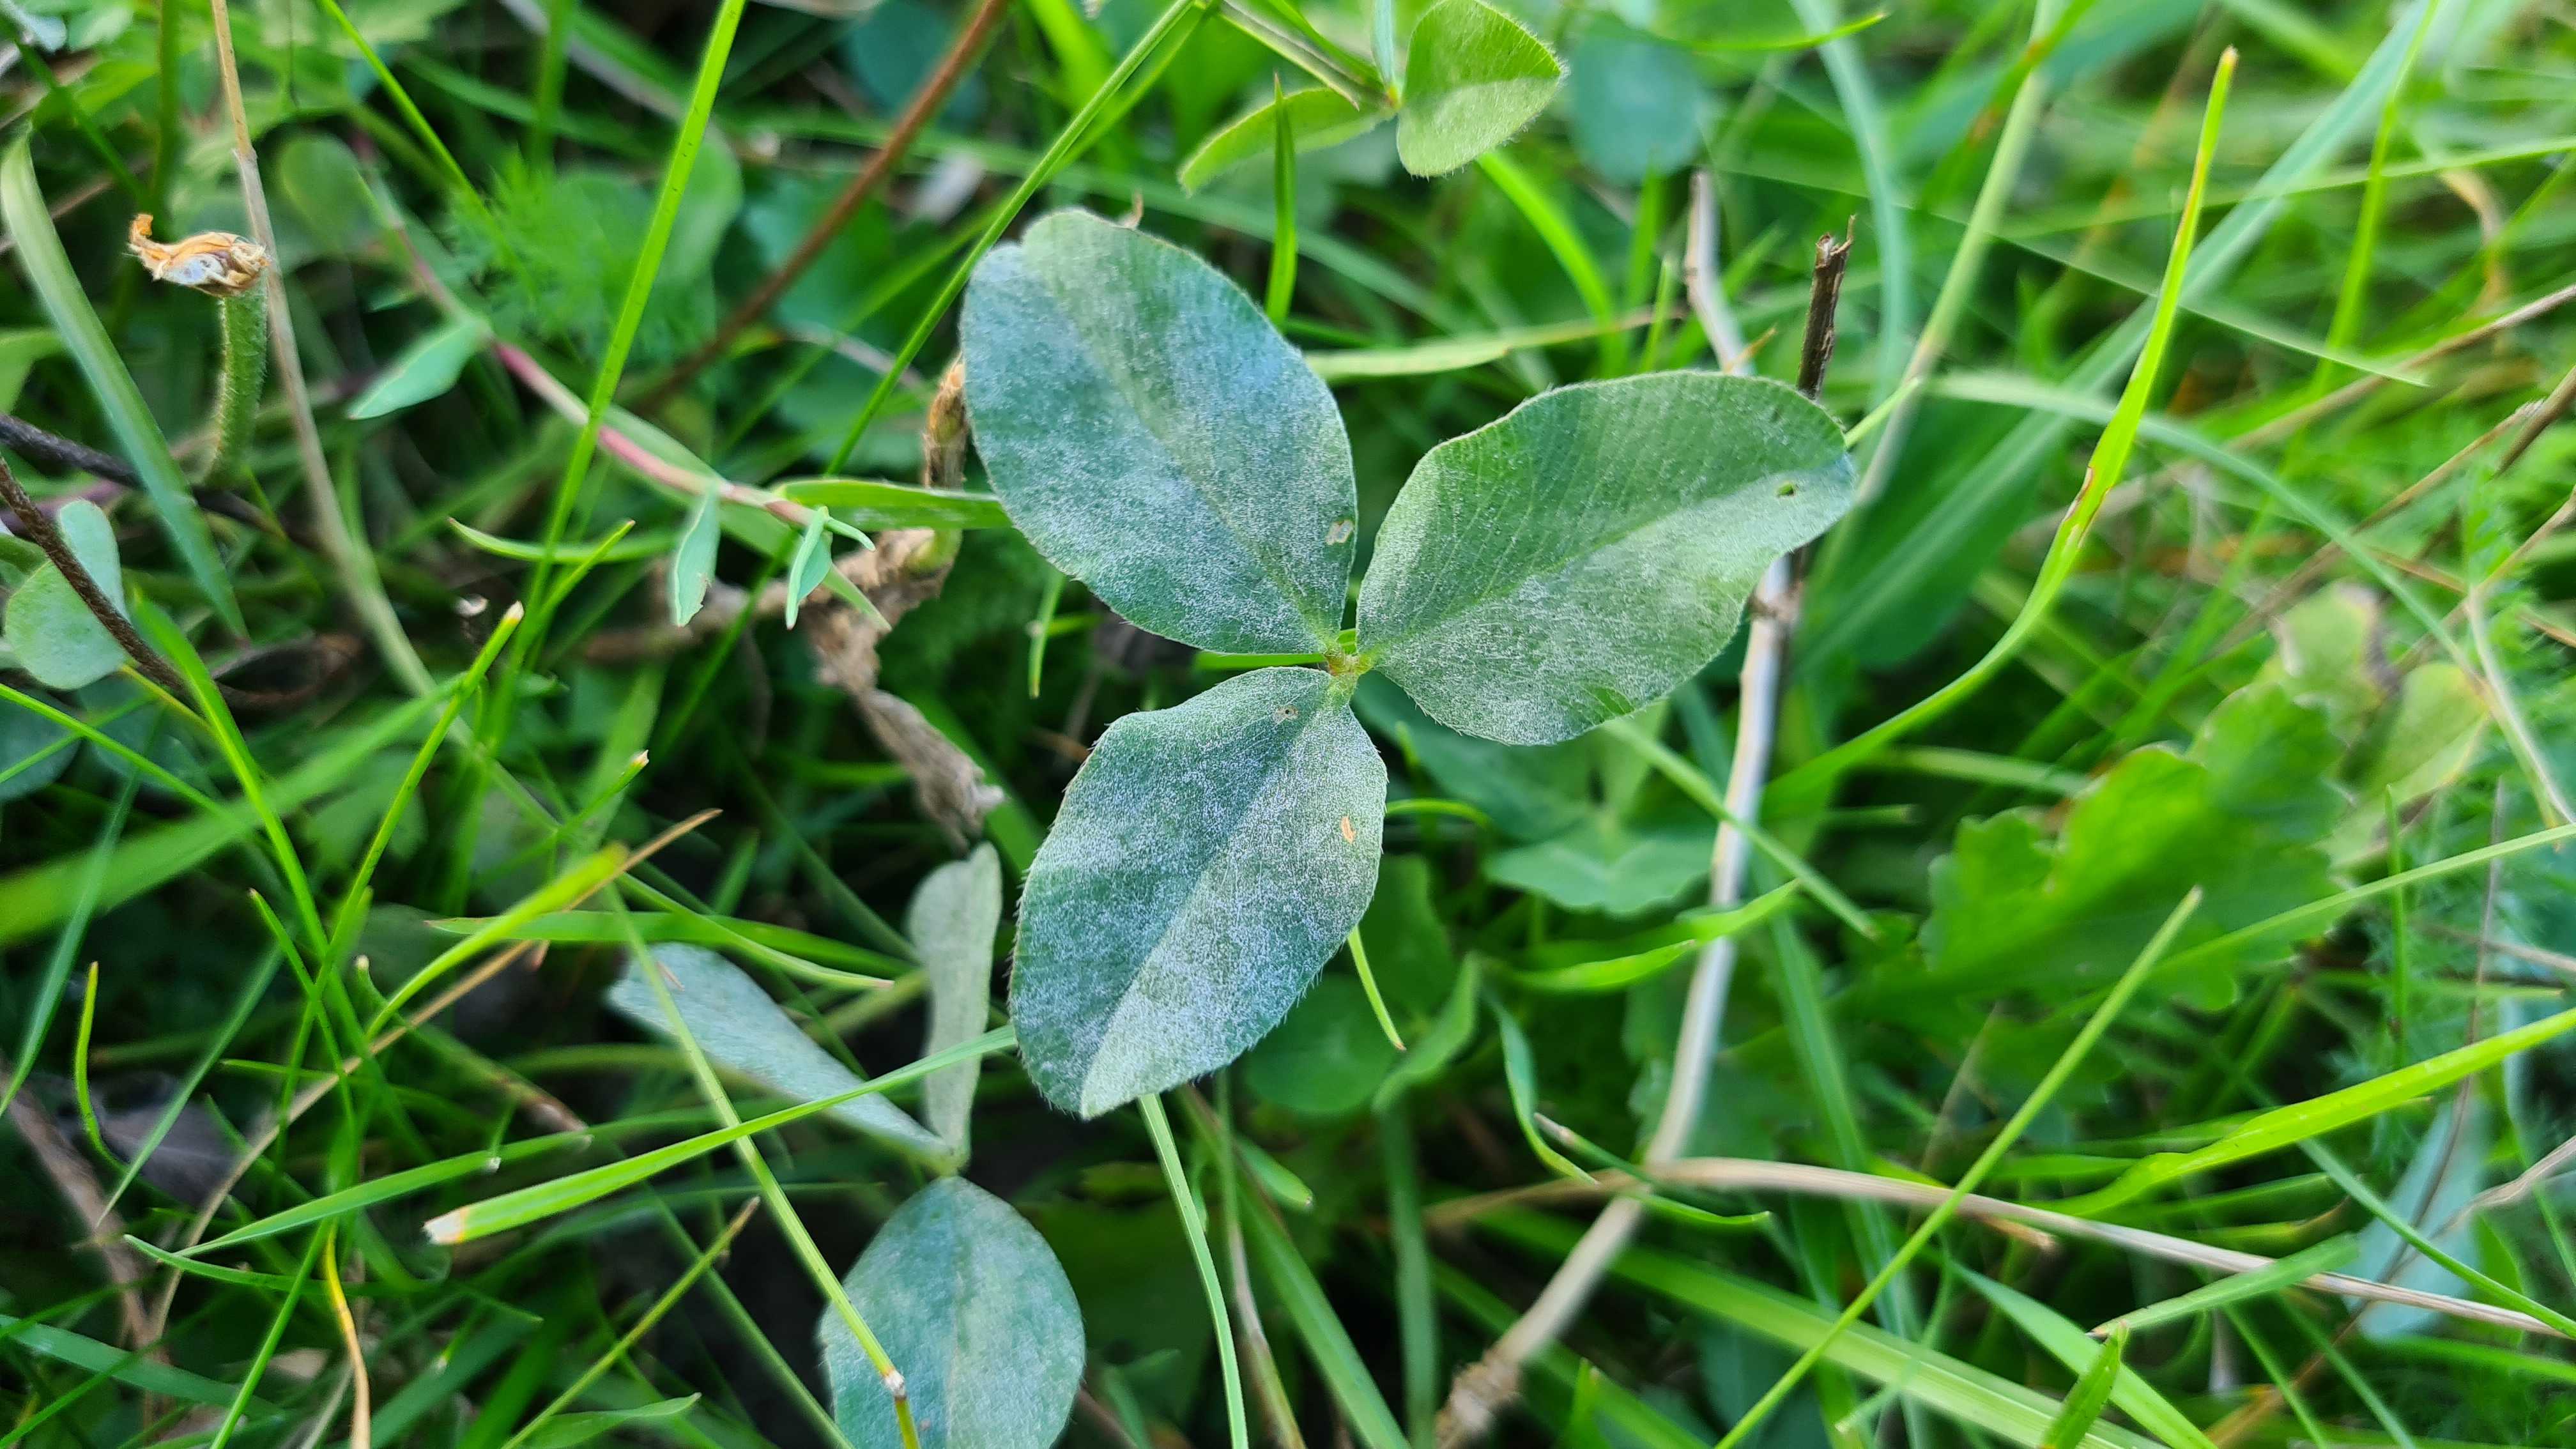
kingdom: Fungi
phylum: Ascomycota
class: Leotiomycetes
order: Helotiales
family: Erysiphaceae
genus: Erysiphe
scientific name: Erysiphe
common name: meldug
